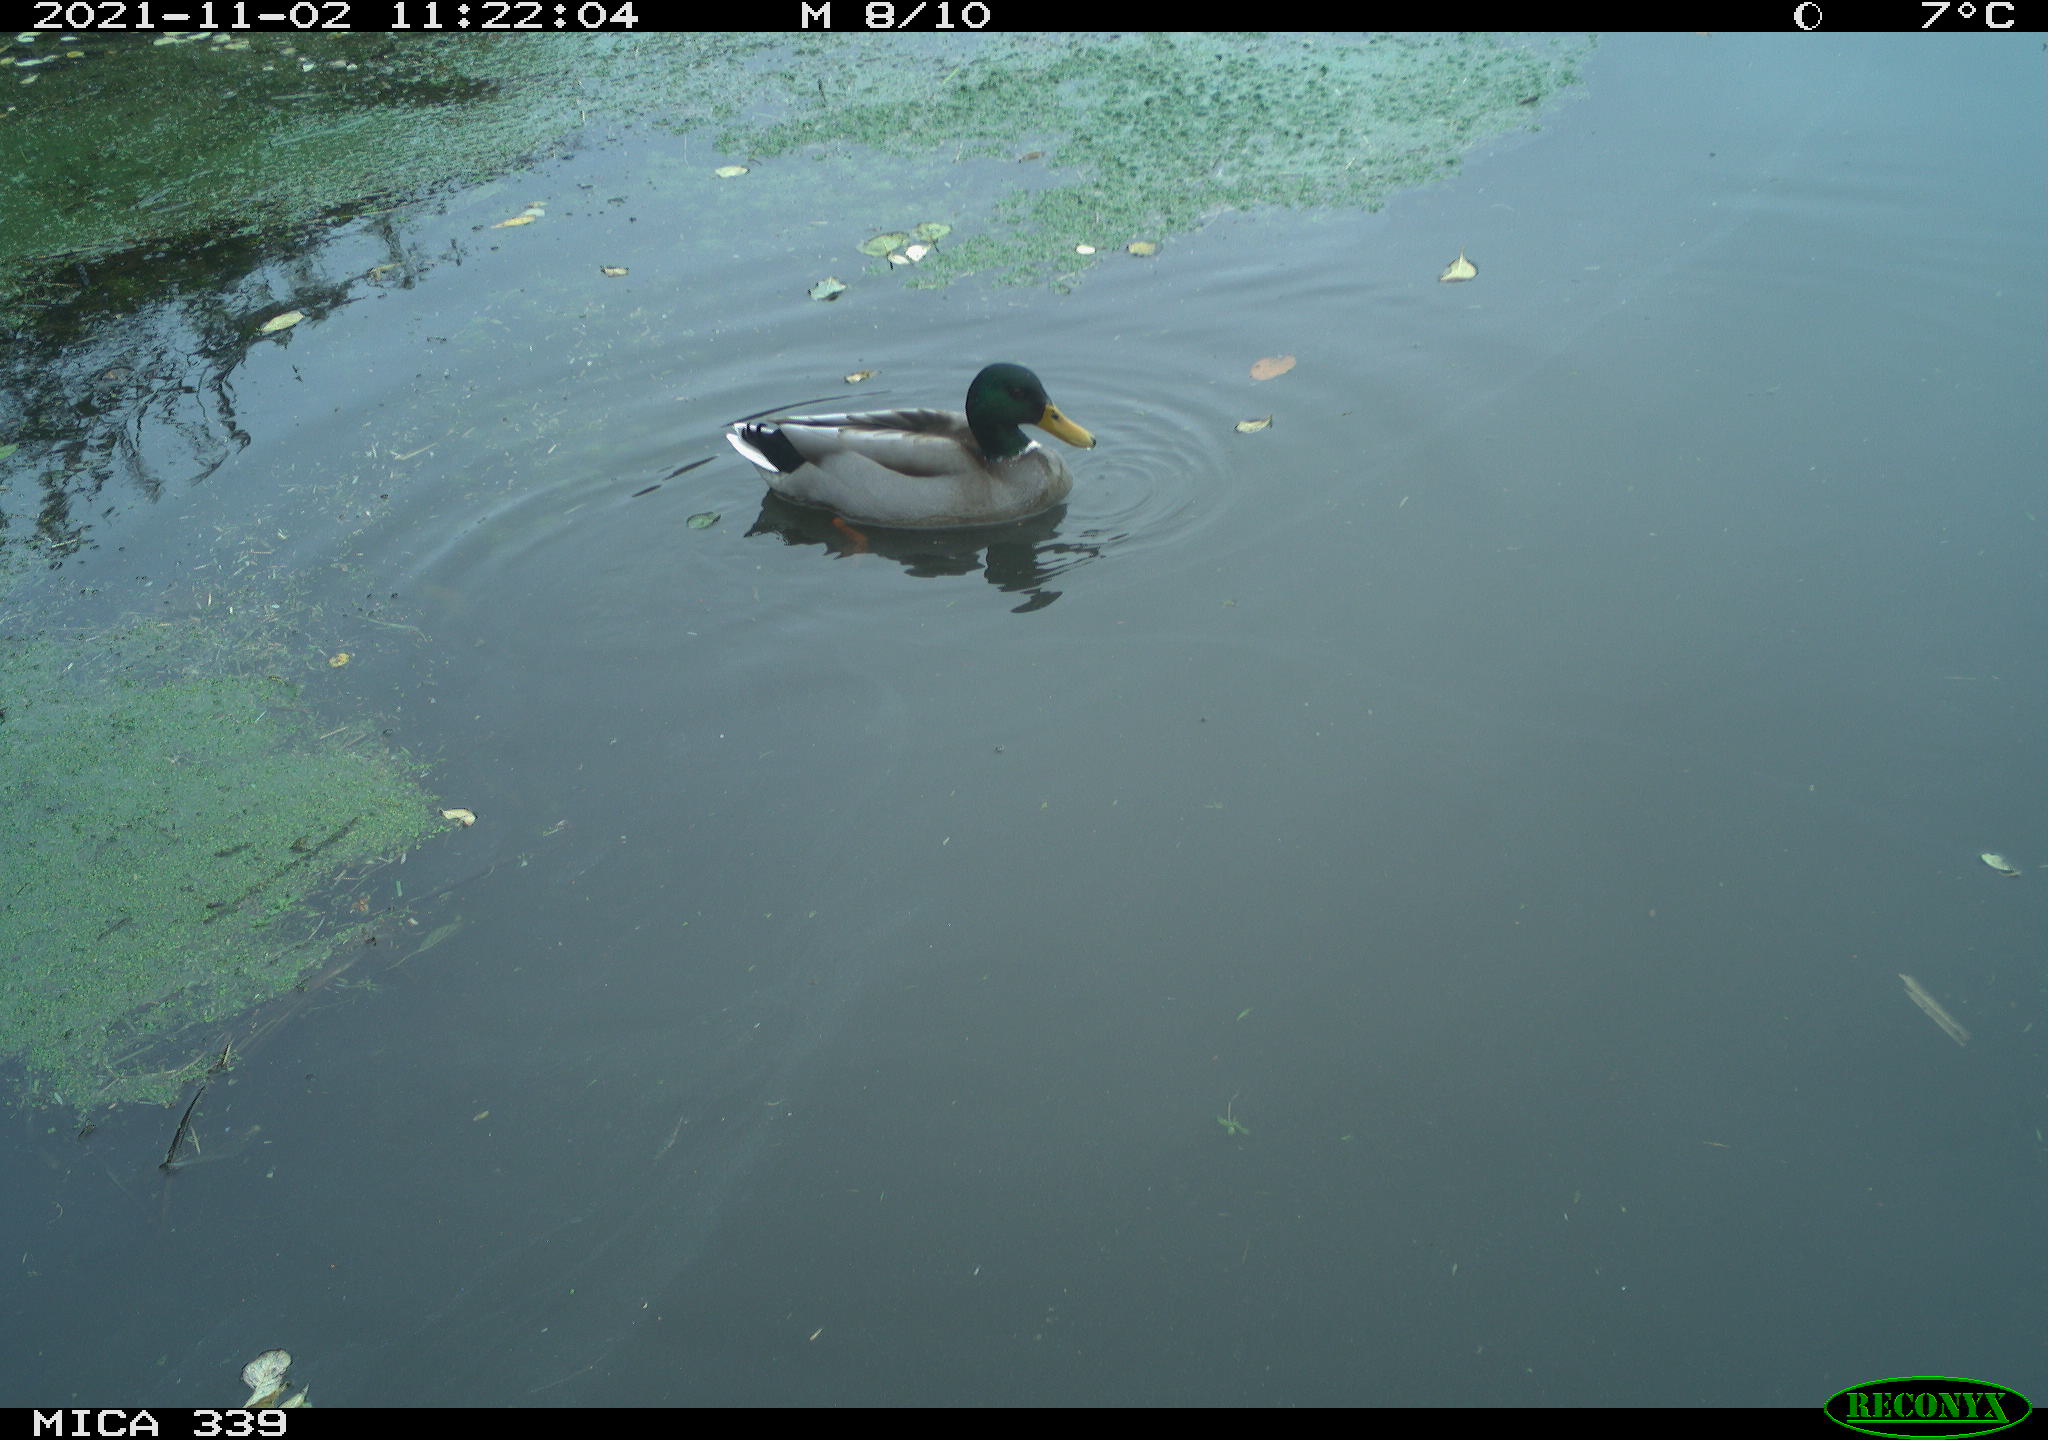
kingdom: Animalia
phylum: Chordata
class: Aves
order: Anseriformes
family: Anatidae
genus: Anas
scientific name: Anas platyrhynchos
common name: Mallard
